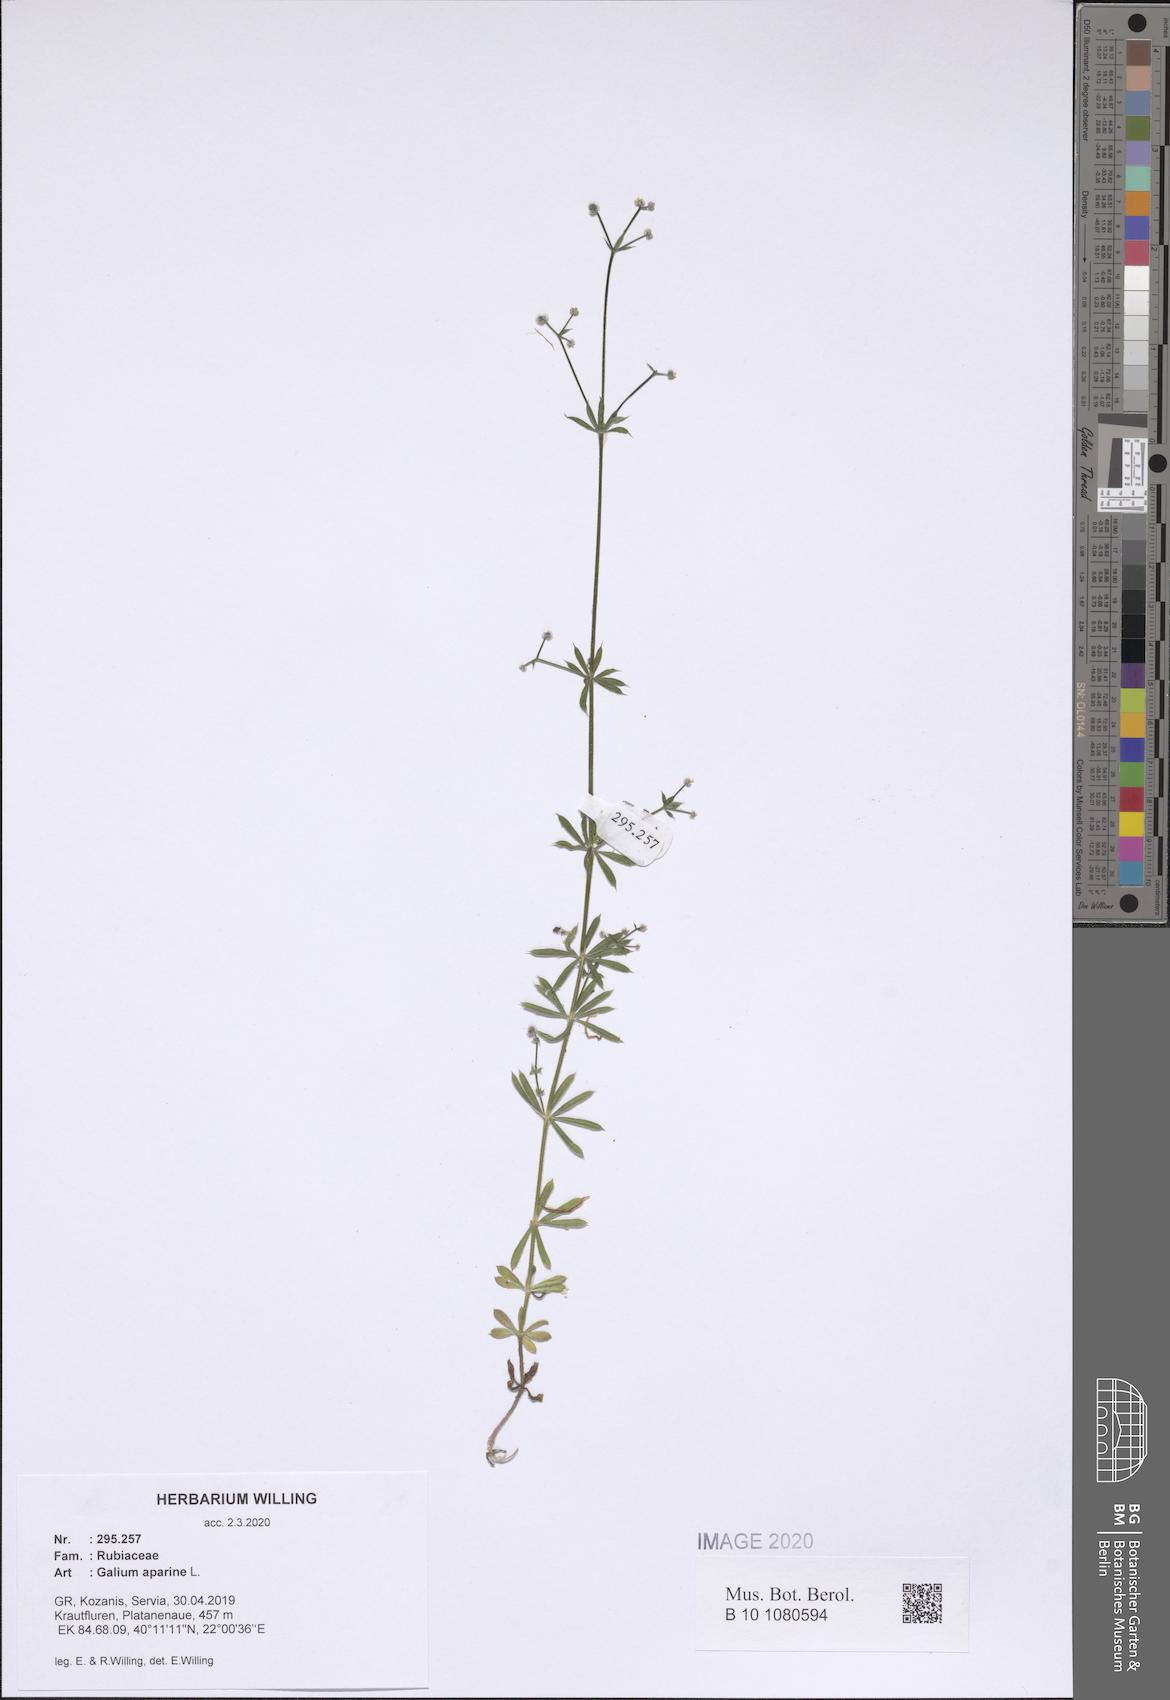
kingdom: Plantae
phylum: Tracheophyta
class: Magnoliopsida
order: Gentianales
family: Rubiaceae
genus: Galium
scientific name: Galium aparine
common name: Cleavers
